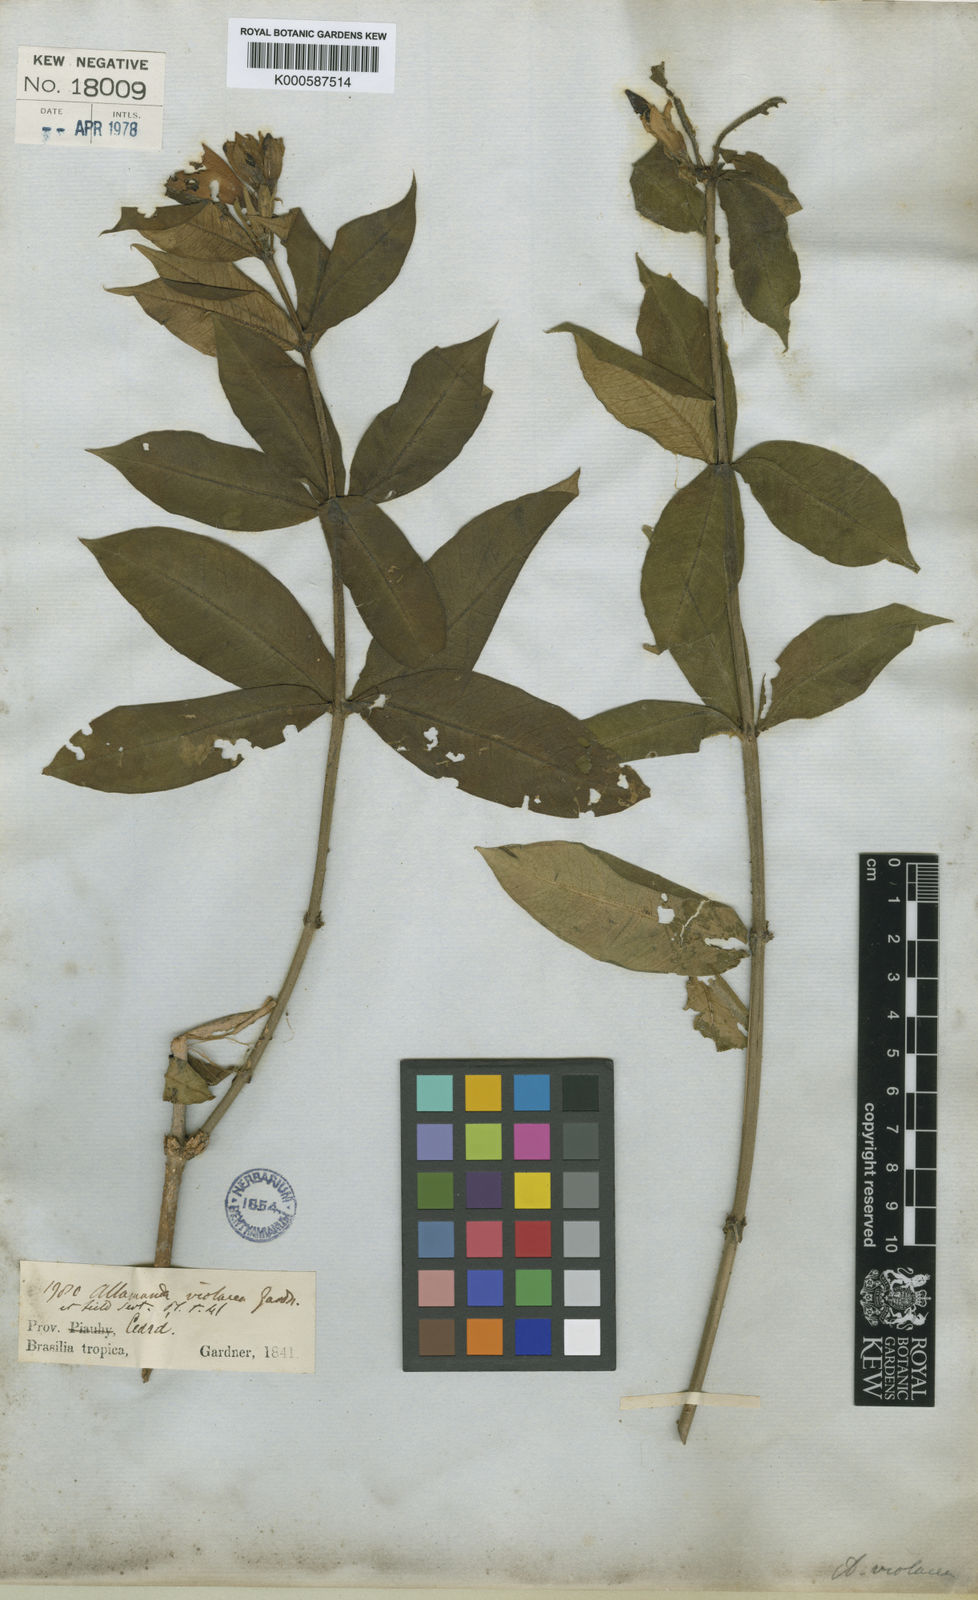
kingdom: Plantae
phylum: Tracheophyta
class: Magnoliopsida
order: Gentianales
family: Apocynaceae
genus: Allamanda
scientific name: Allamanda blanchetii
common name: Purple allamanda
